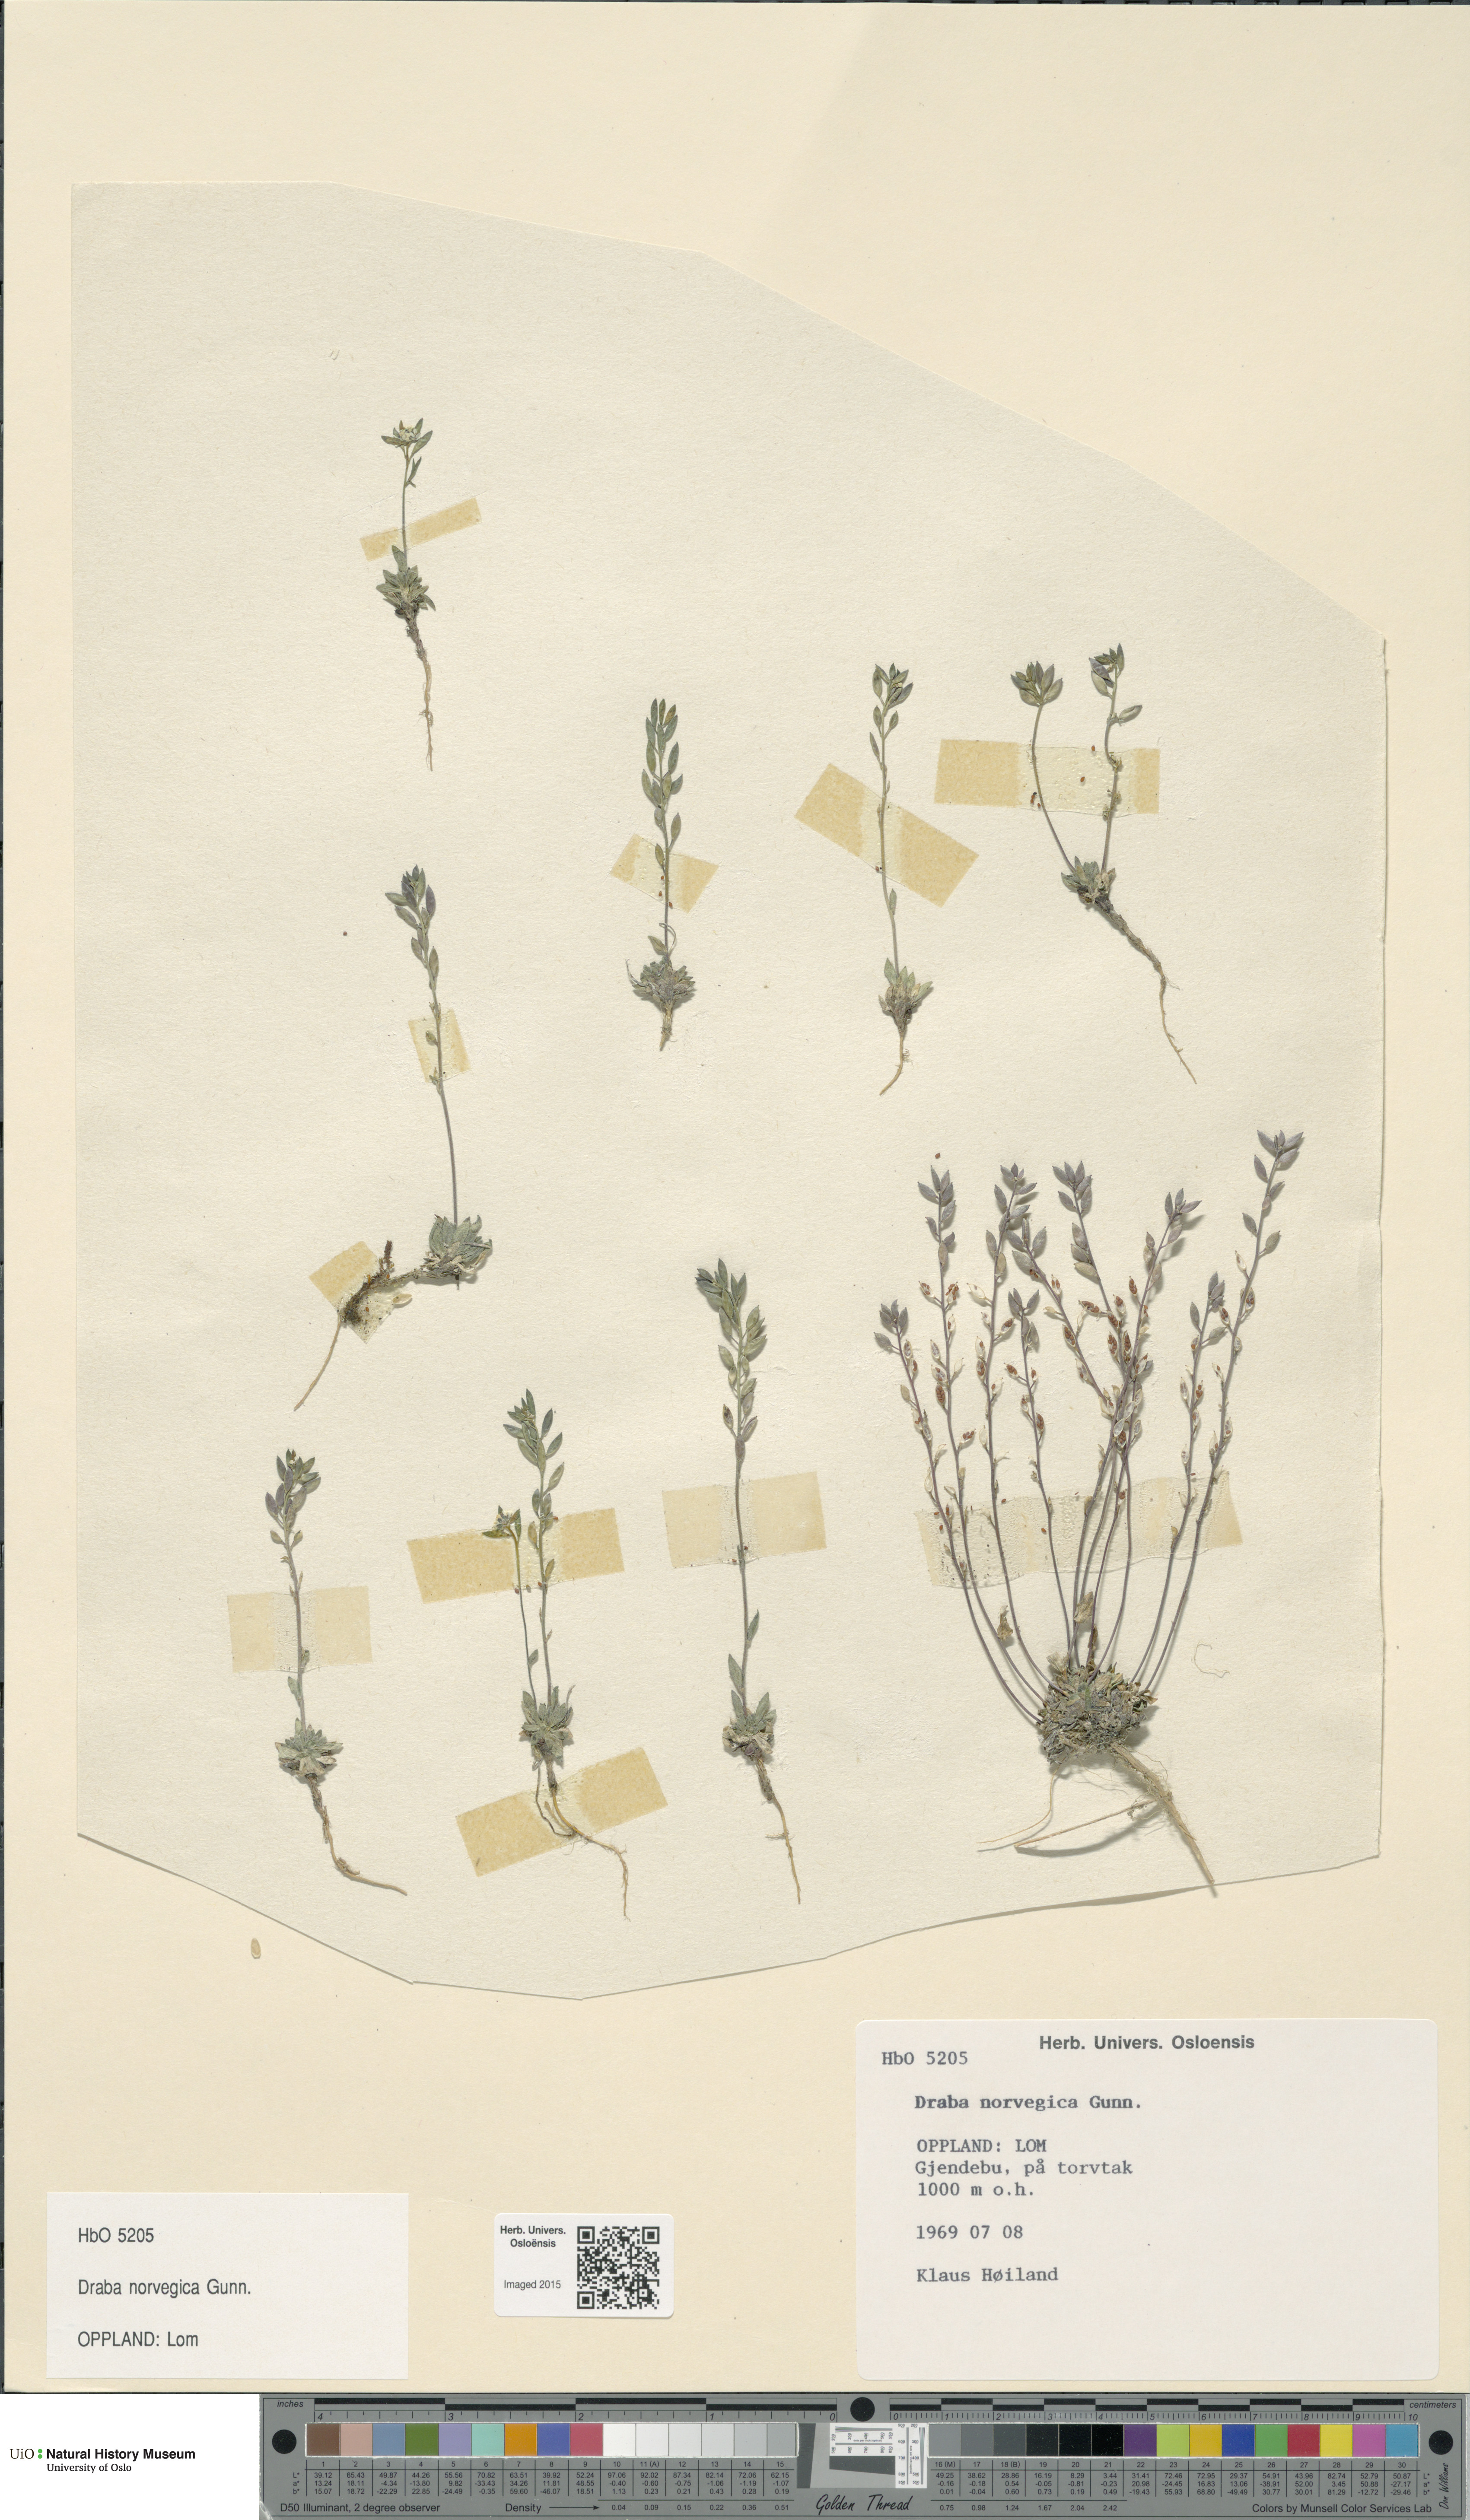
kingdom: Plantae
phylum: Tracheophyta
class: Magnoliopsida
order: Brassicales
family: Brassicaceae
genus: Draba
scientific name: Draba norvegica
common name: Rock whitlowgrass
